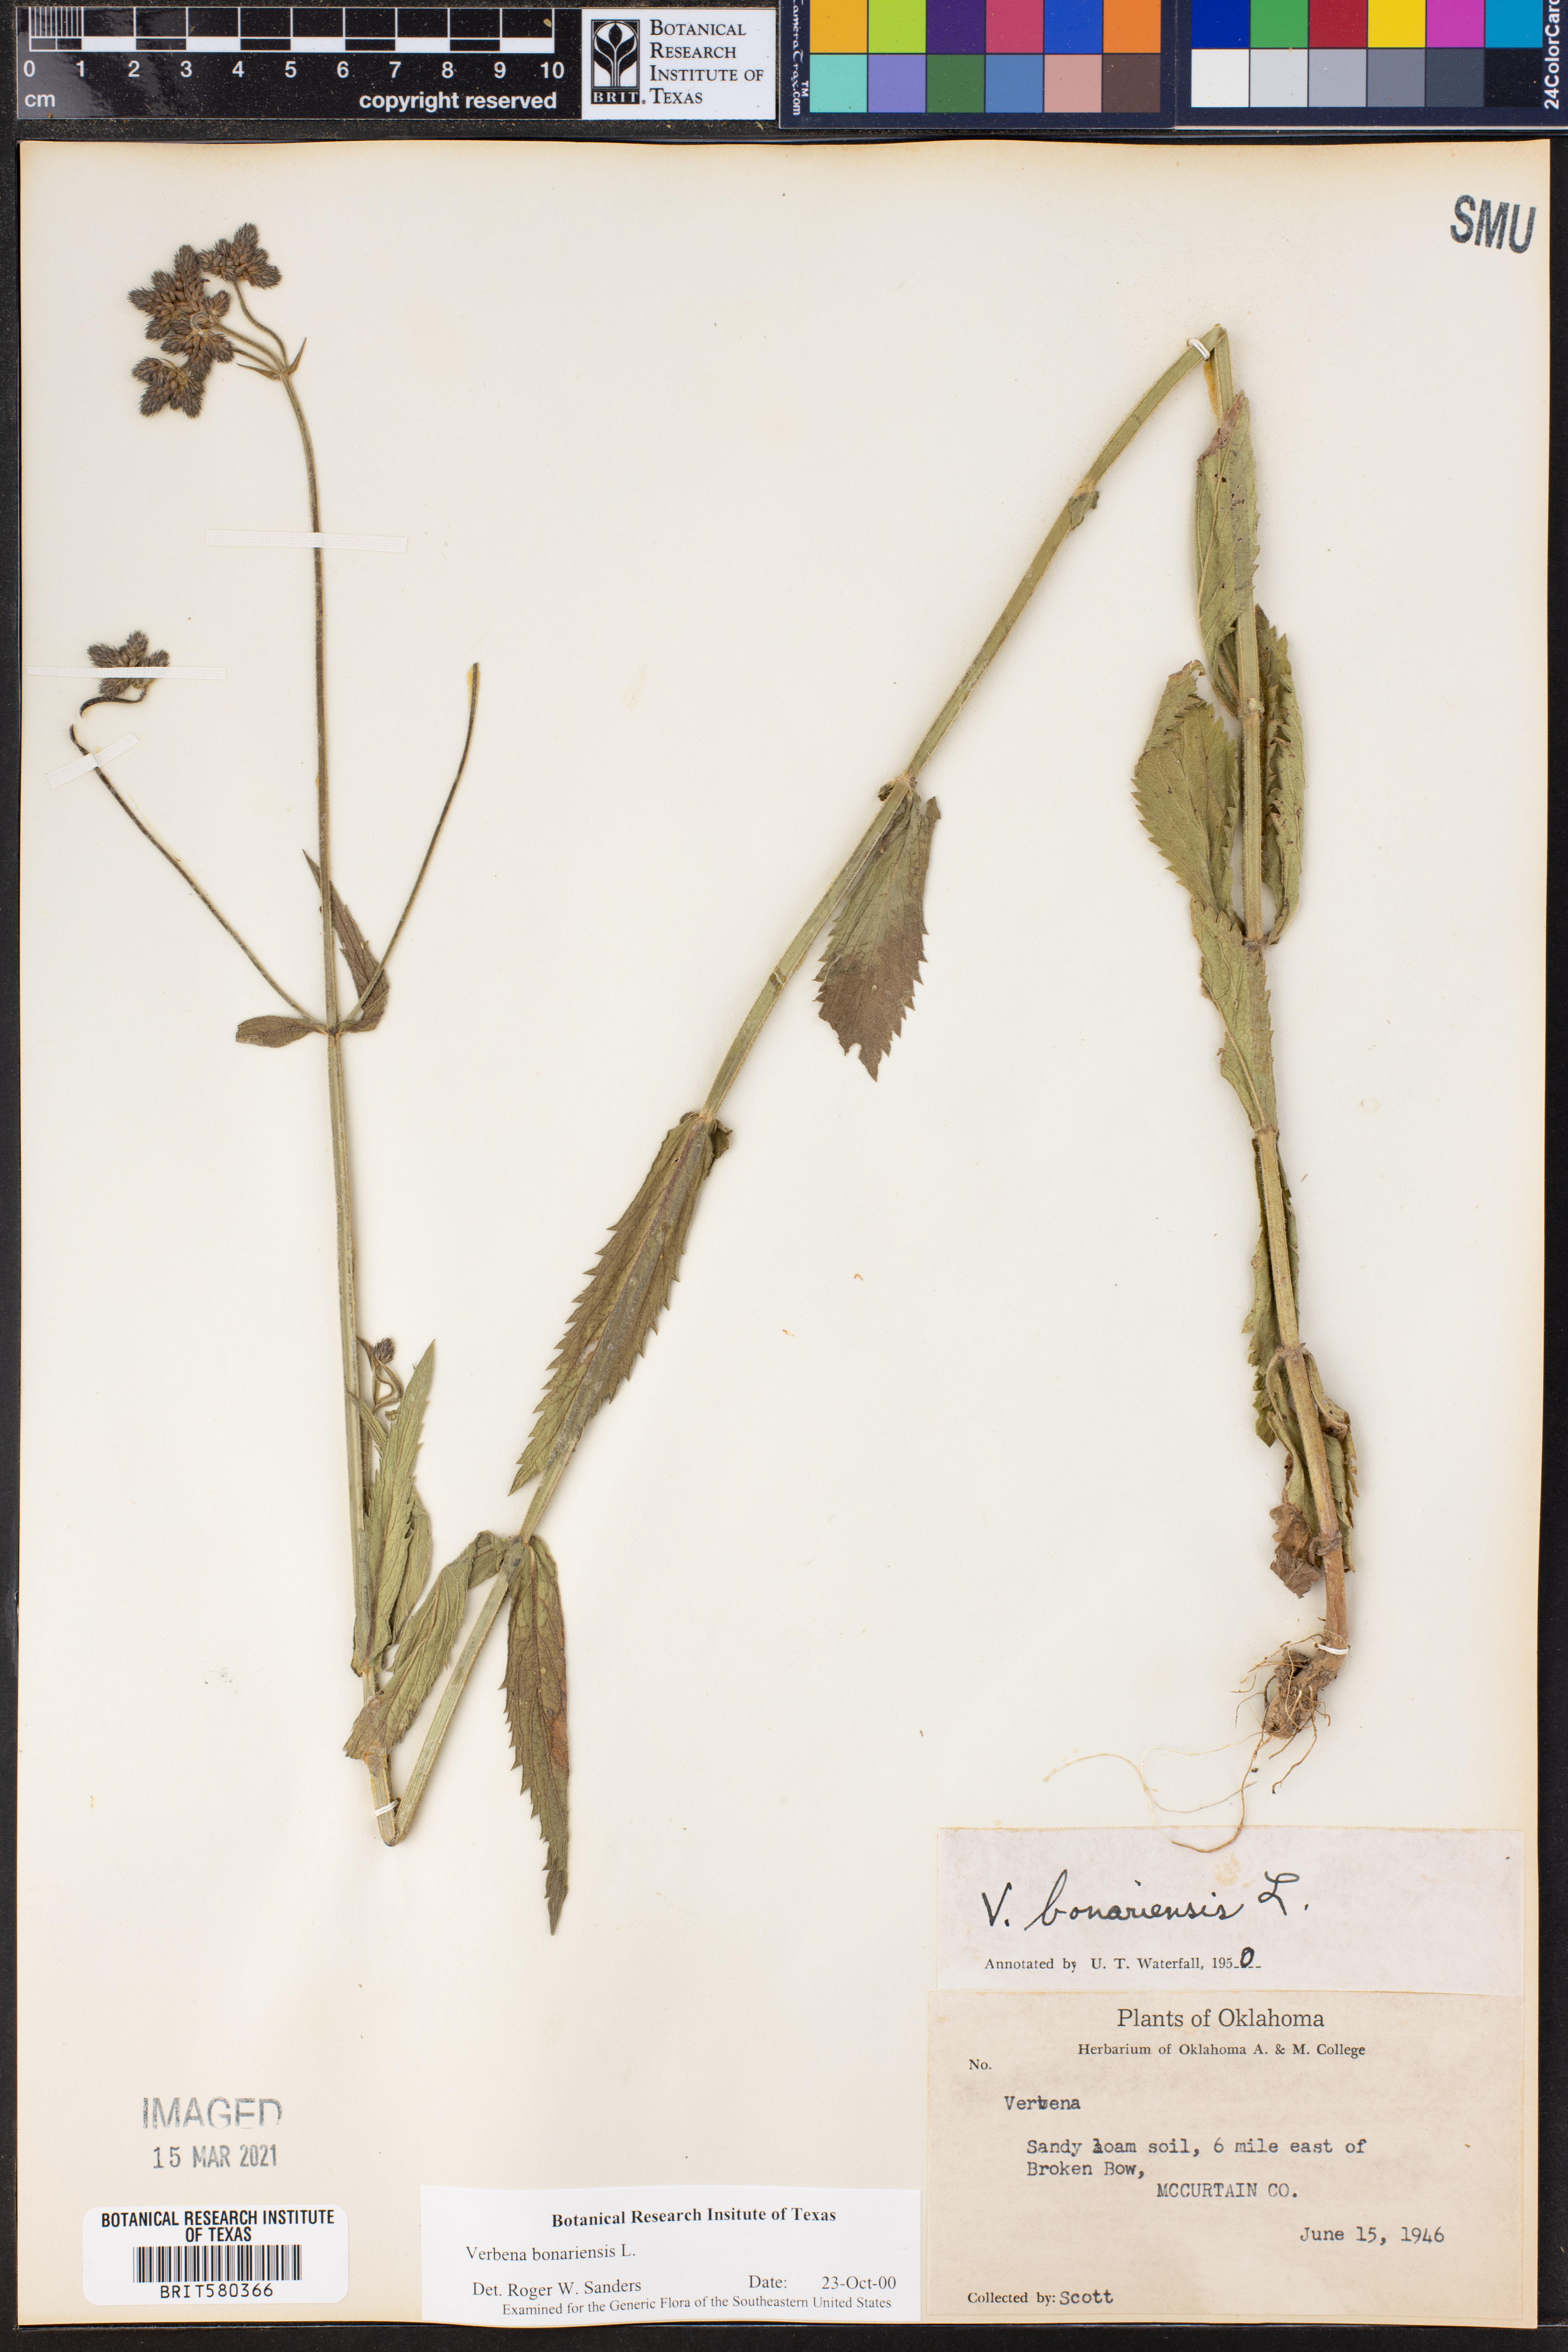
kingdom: Plantae
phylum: Tracheophyta
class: Magnoliopsida
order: Lamiales
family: Verbenaceae
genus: Verbena
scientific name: Verbena bonariensis
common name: Purpletop vervain
